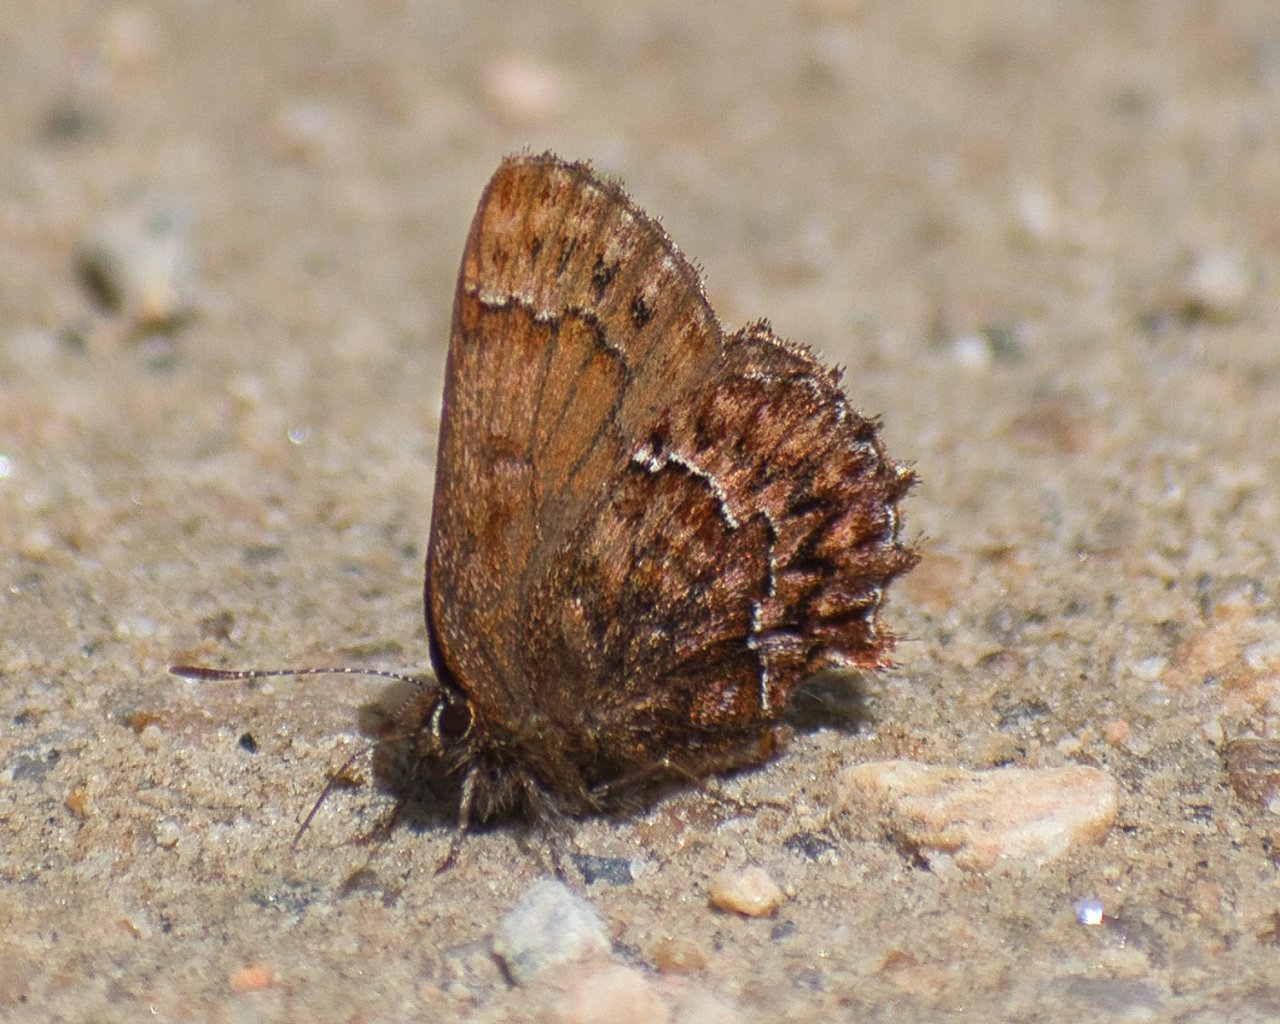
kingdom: Animalia
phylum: Arthropoda
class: Insecta
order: Lepidoptera
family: Lycaenidae
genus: Incisalia
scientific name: Incisalia eryphon
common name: Western Pine Elfin
